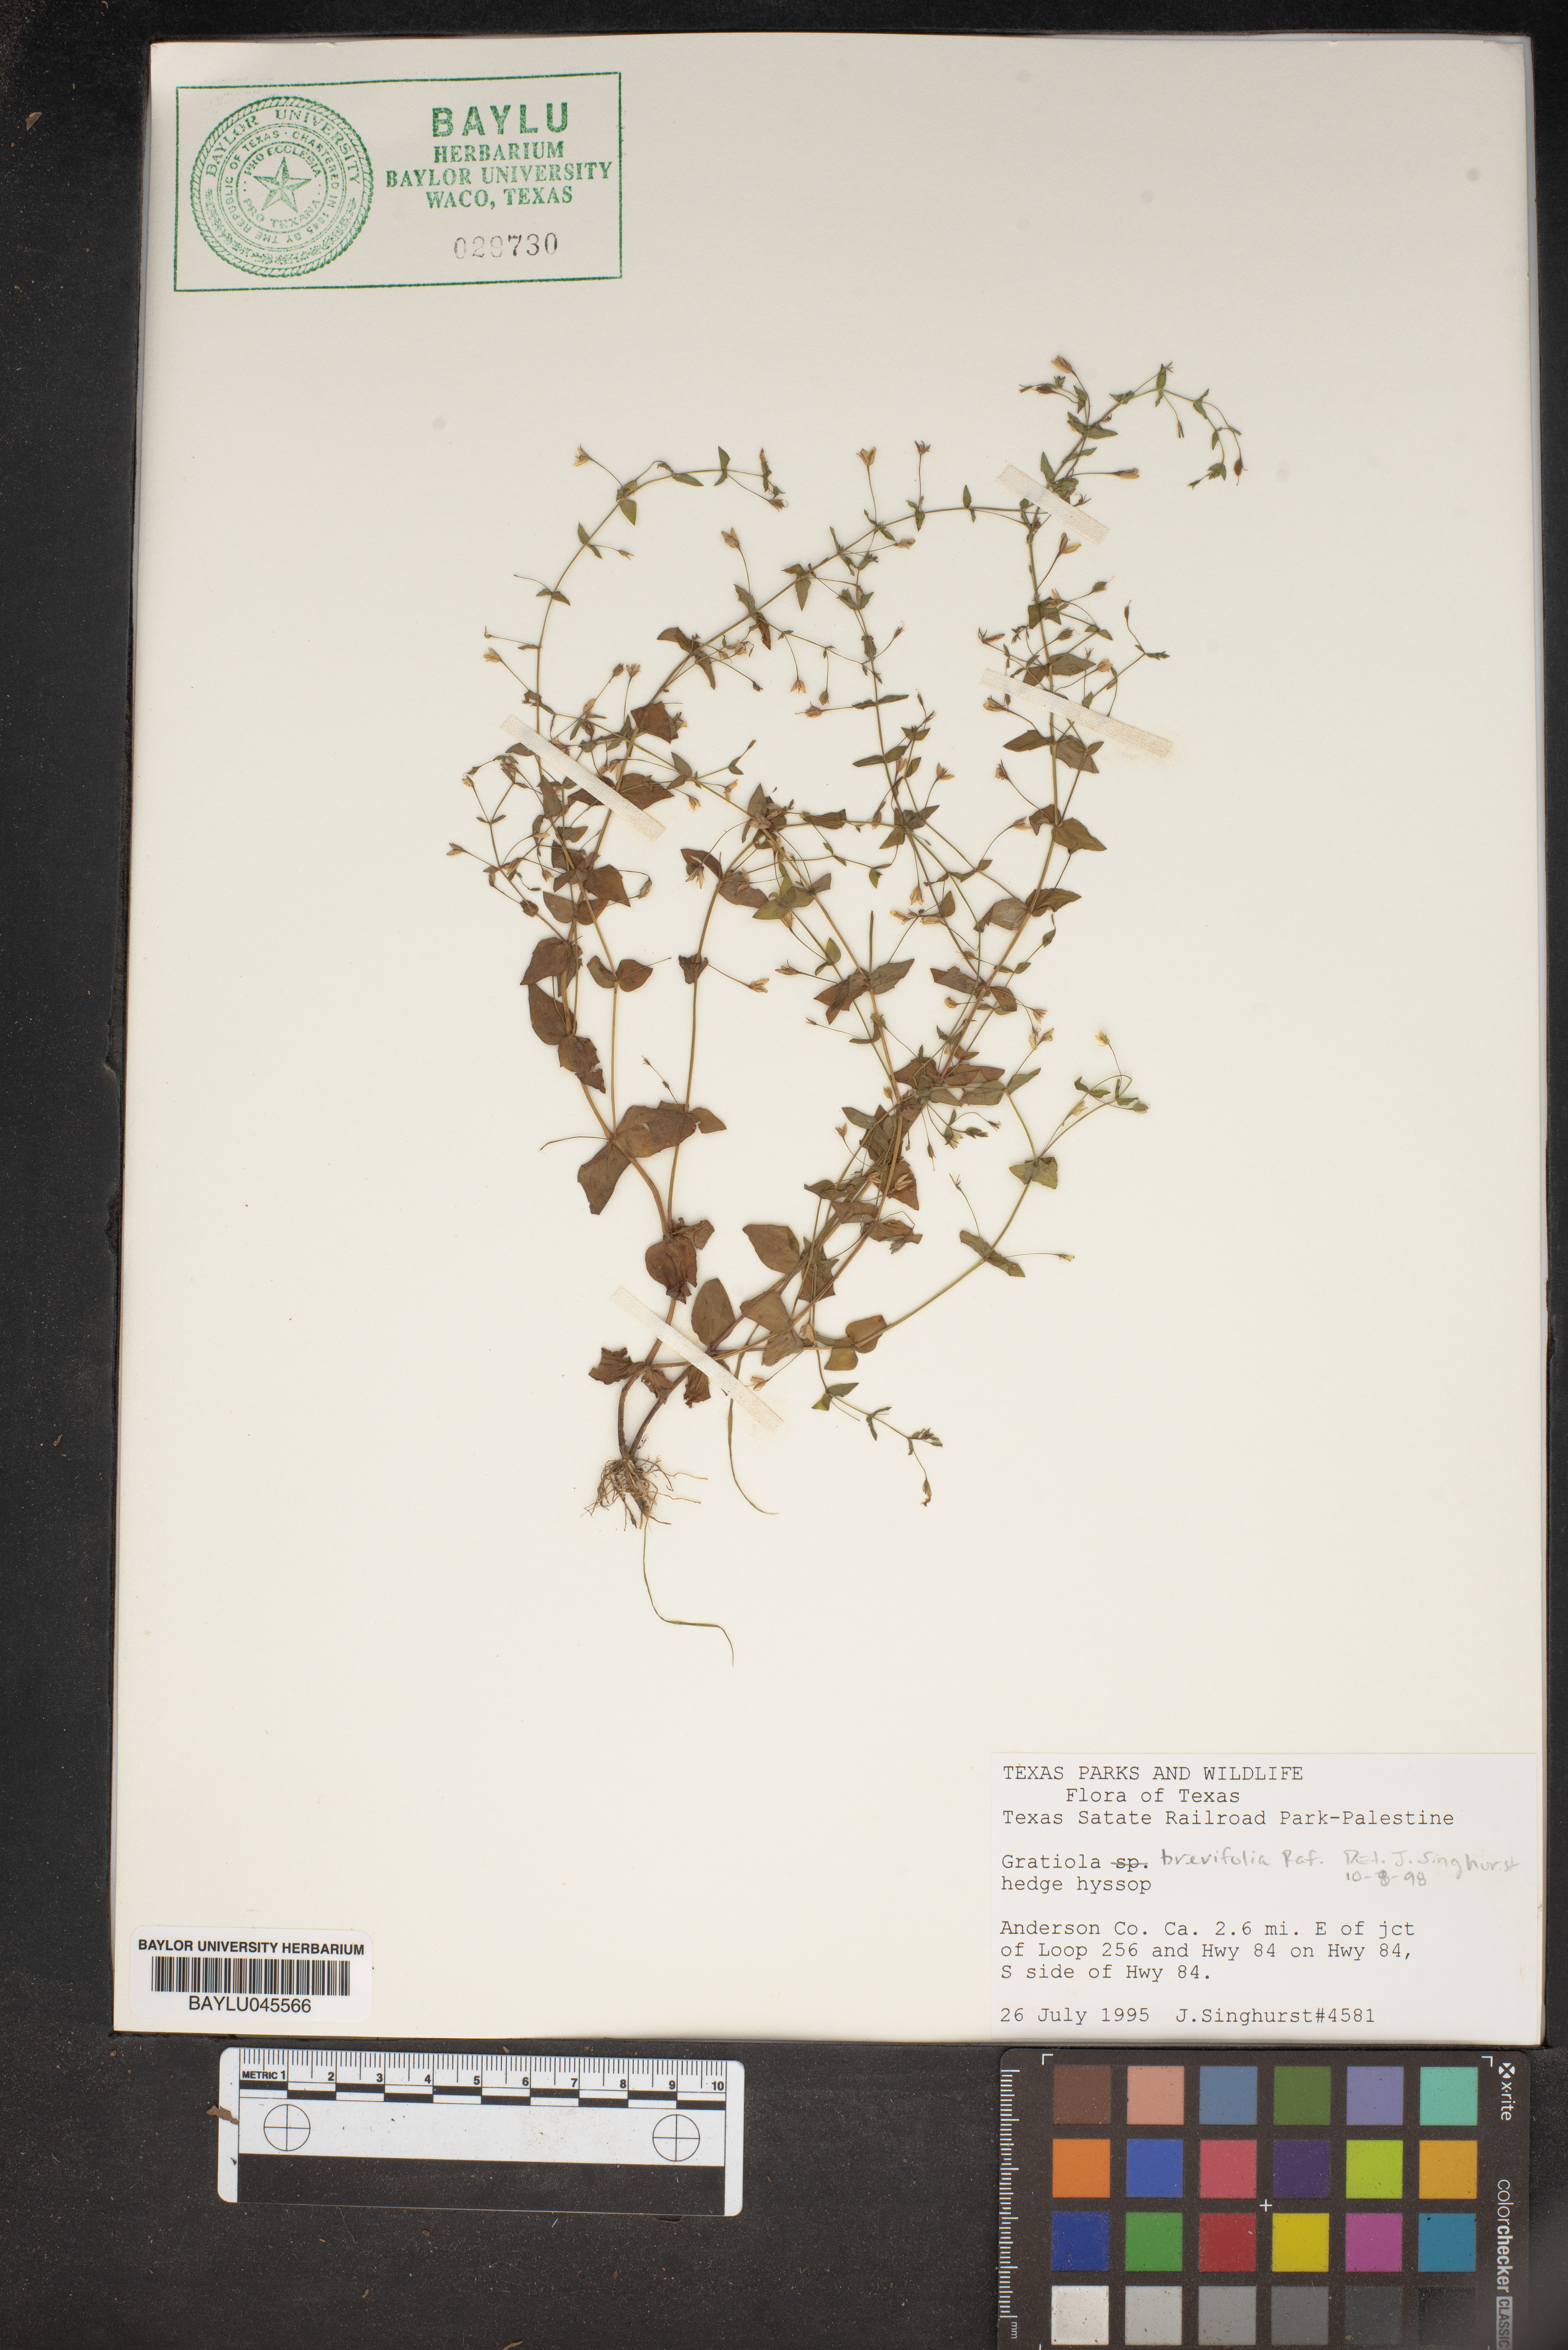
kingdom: Plantae
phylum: Tracheophyta
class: Magnoliopsida
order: Lamiales
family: Plantaginaceae
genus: Gratiola
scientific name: Gratiola brevifolia
